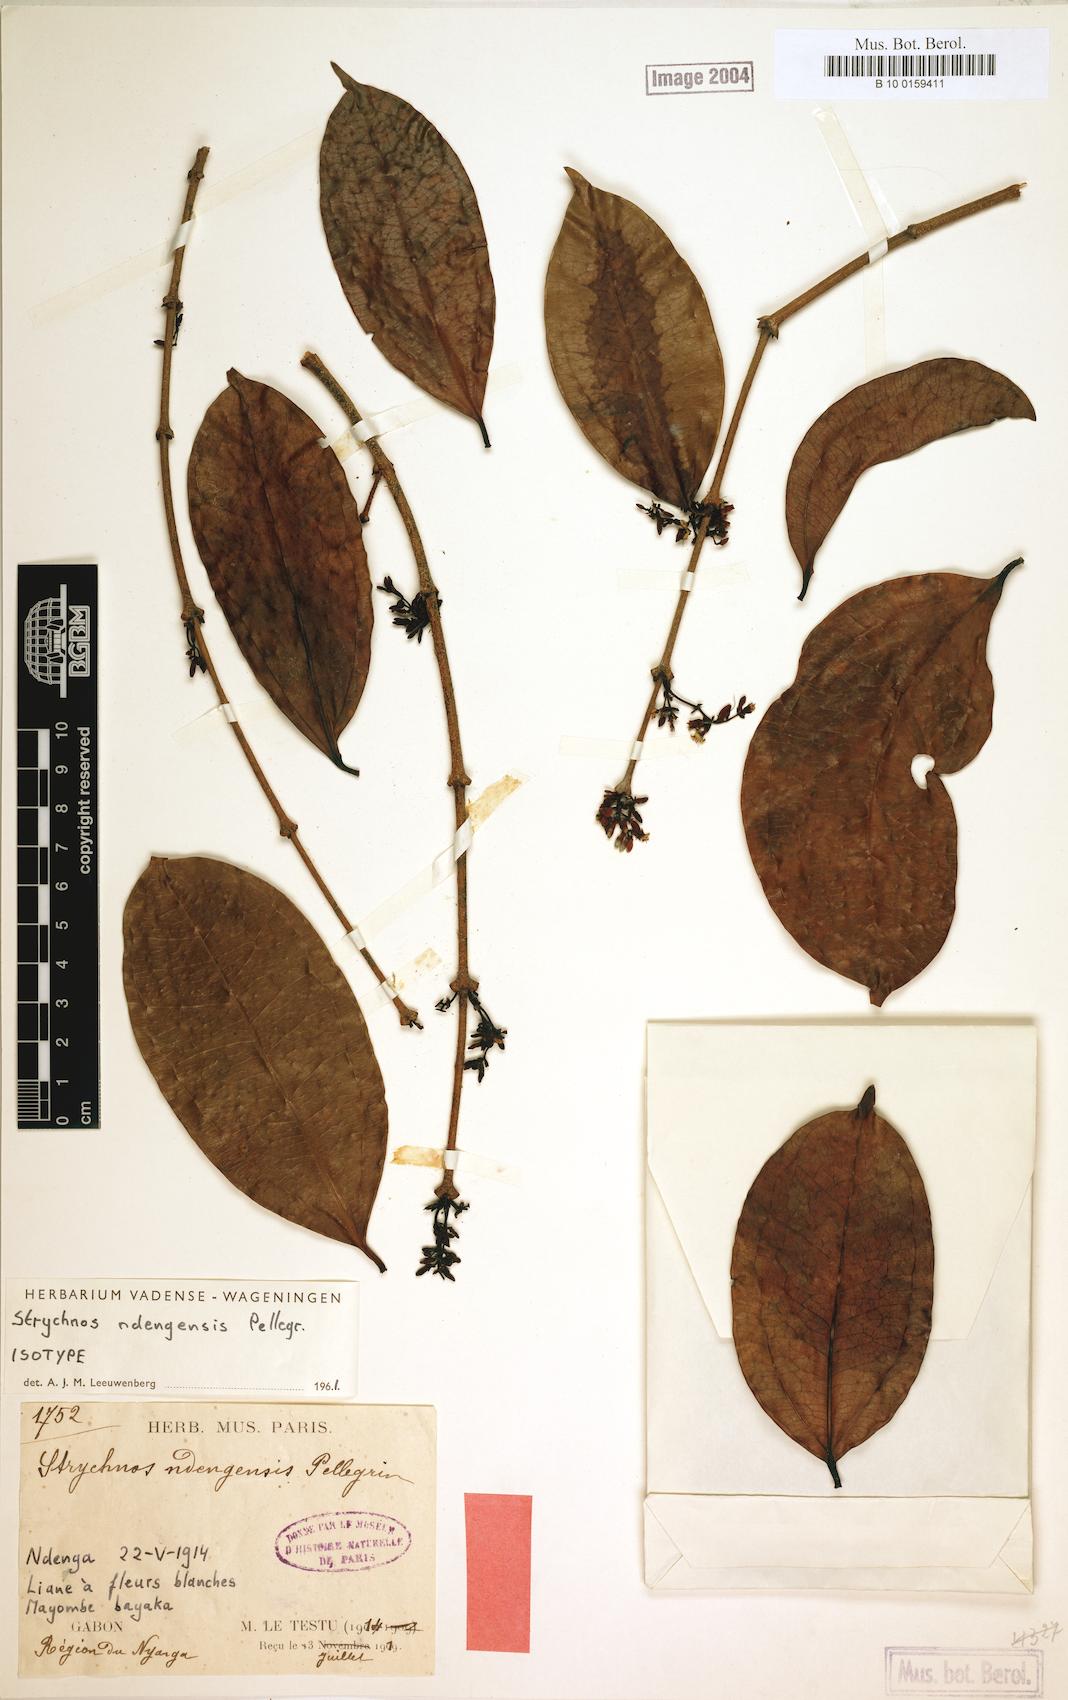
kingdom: Plantae
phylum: Tracheophyta
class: Magnoliopsida
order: Gentianales
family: Loganiaceae
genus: Strychnos
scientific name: Strychnos ndengensis
